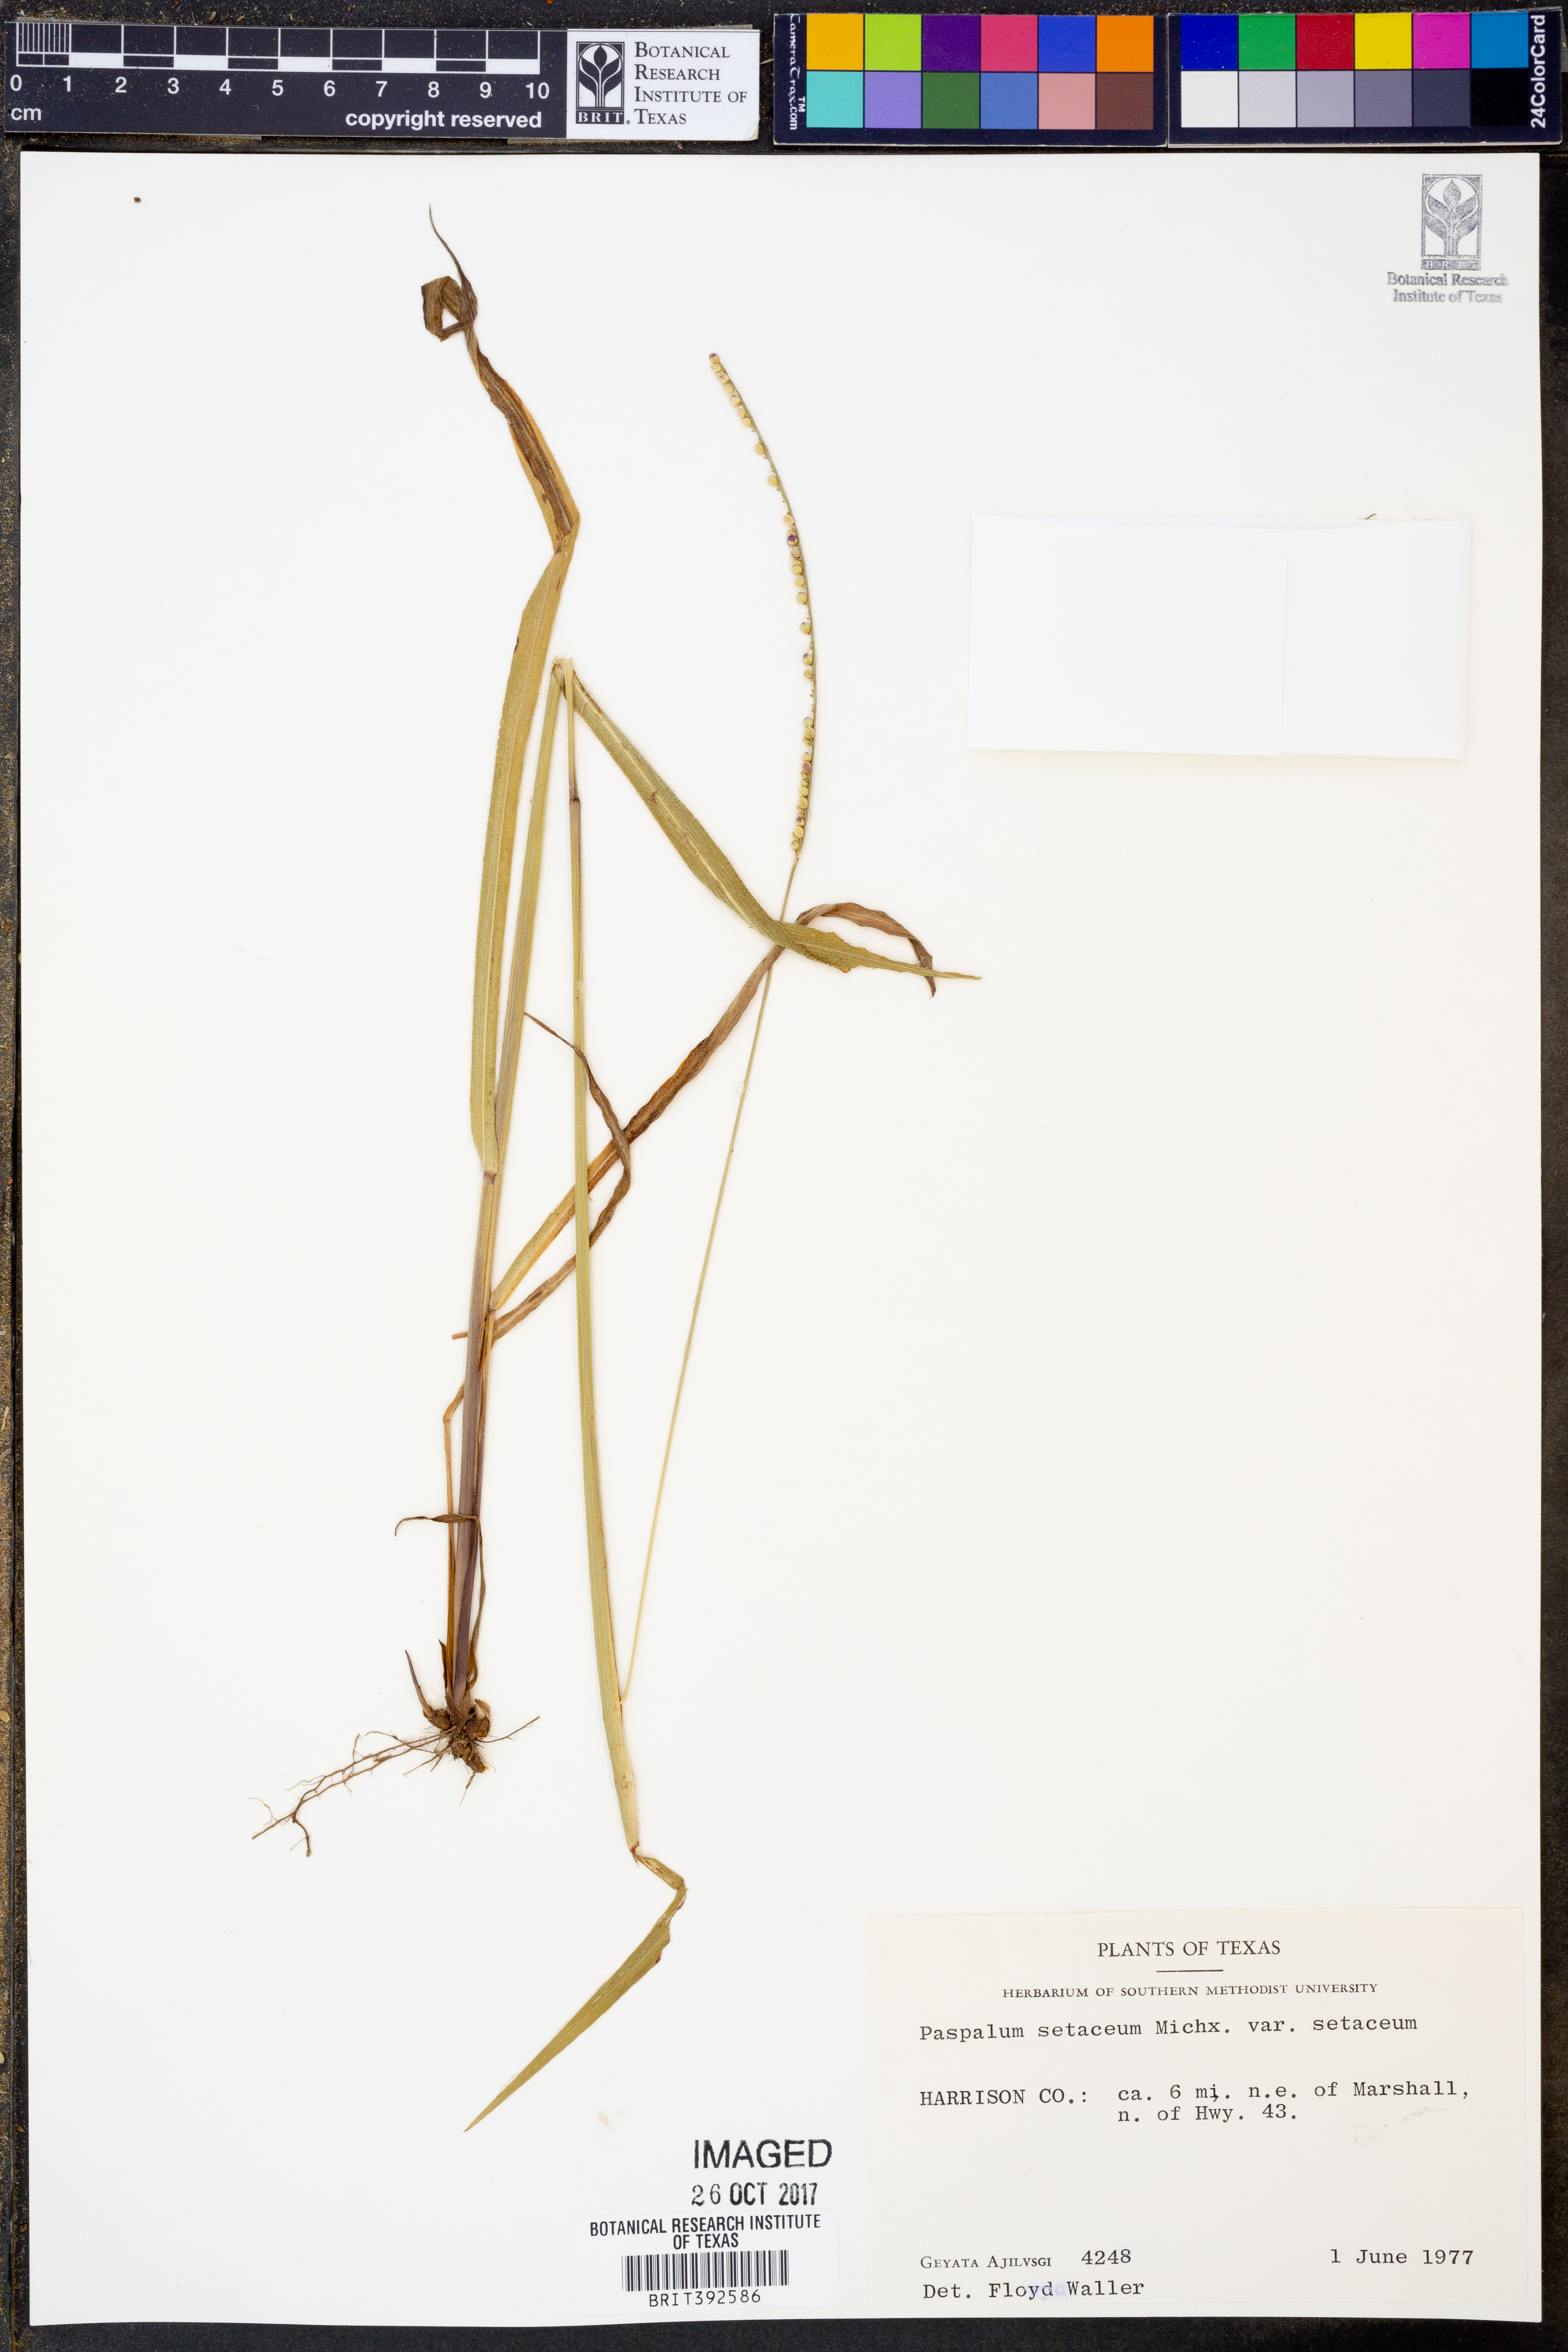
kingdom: Plantae
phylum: Tracheophyta
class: Liliopsida
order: Poales
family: Poaceae
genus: Paspalum
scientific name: Paspalum setaceum
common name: Slender paspalum
